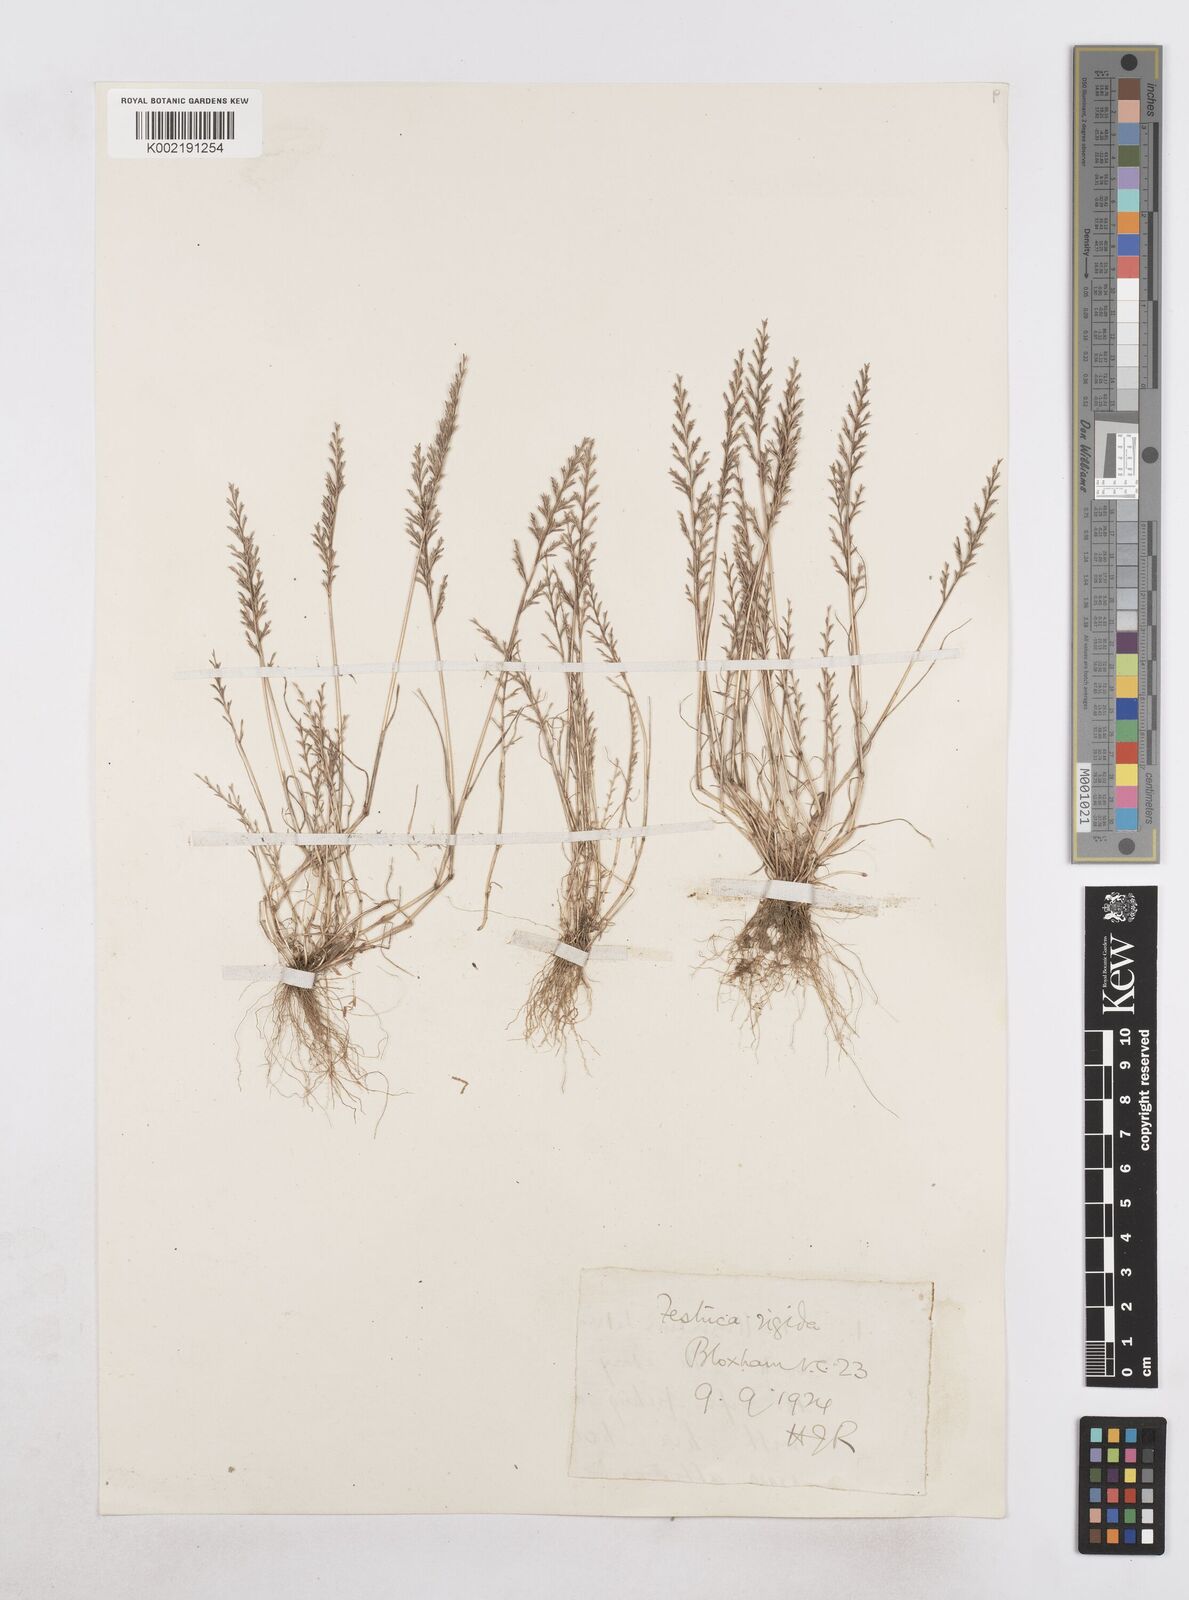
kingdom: Plantae
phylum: Tracheophyta
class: Liliopsida
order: Poales
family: Poaceae
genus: Catapodium
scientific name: Catapodium rigidum
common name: Fern-grass
